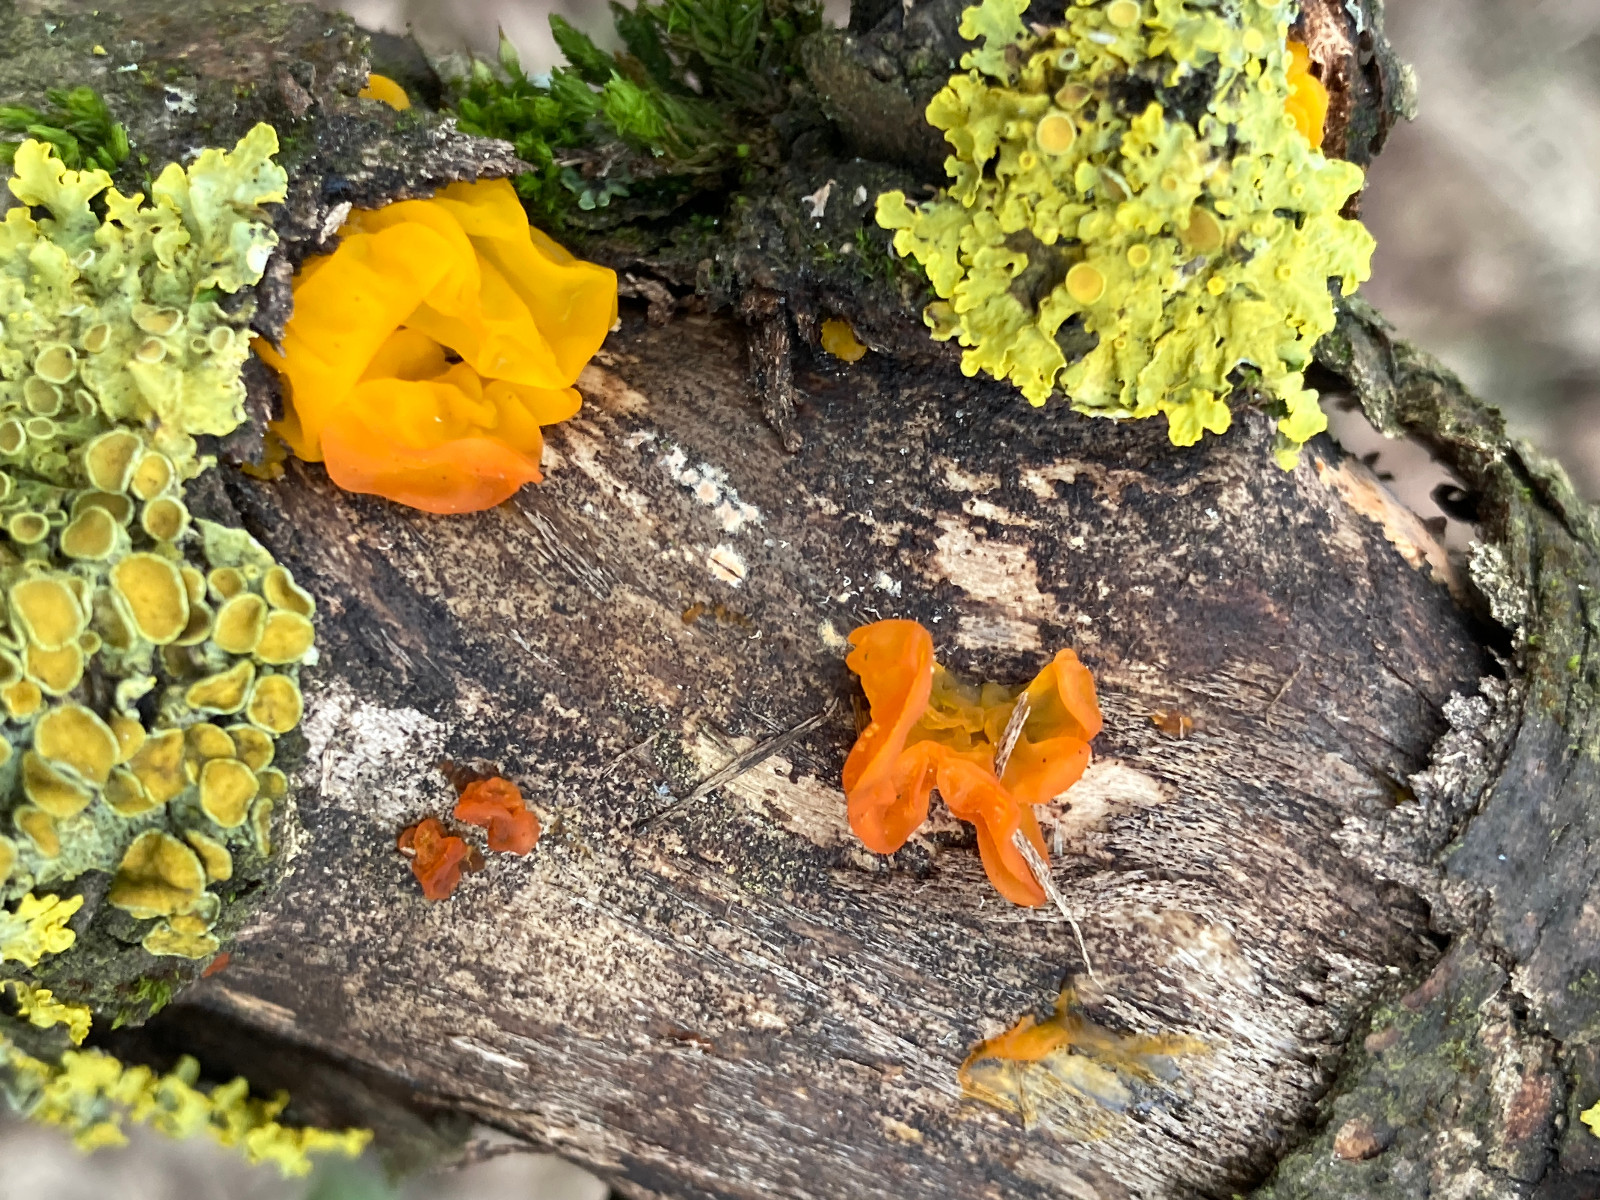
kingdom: Fungi
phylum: Basidiomycota
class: Tremellomycetes
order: Tremellales
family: Tremellaceae
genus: Tremella
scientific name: Tremella mesenterica
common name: gul bævresvamp
